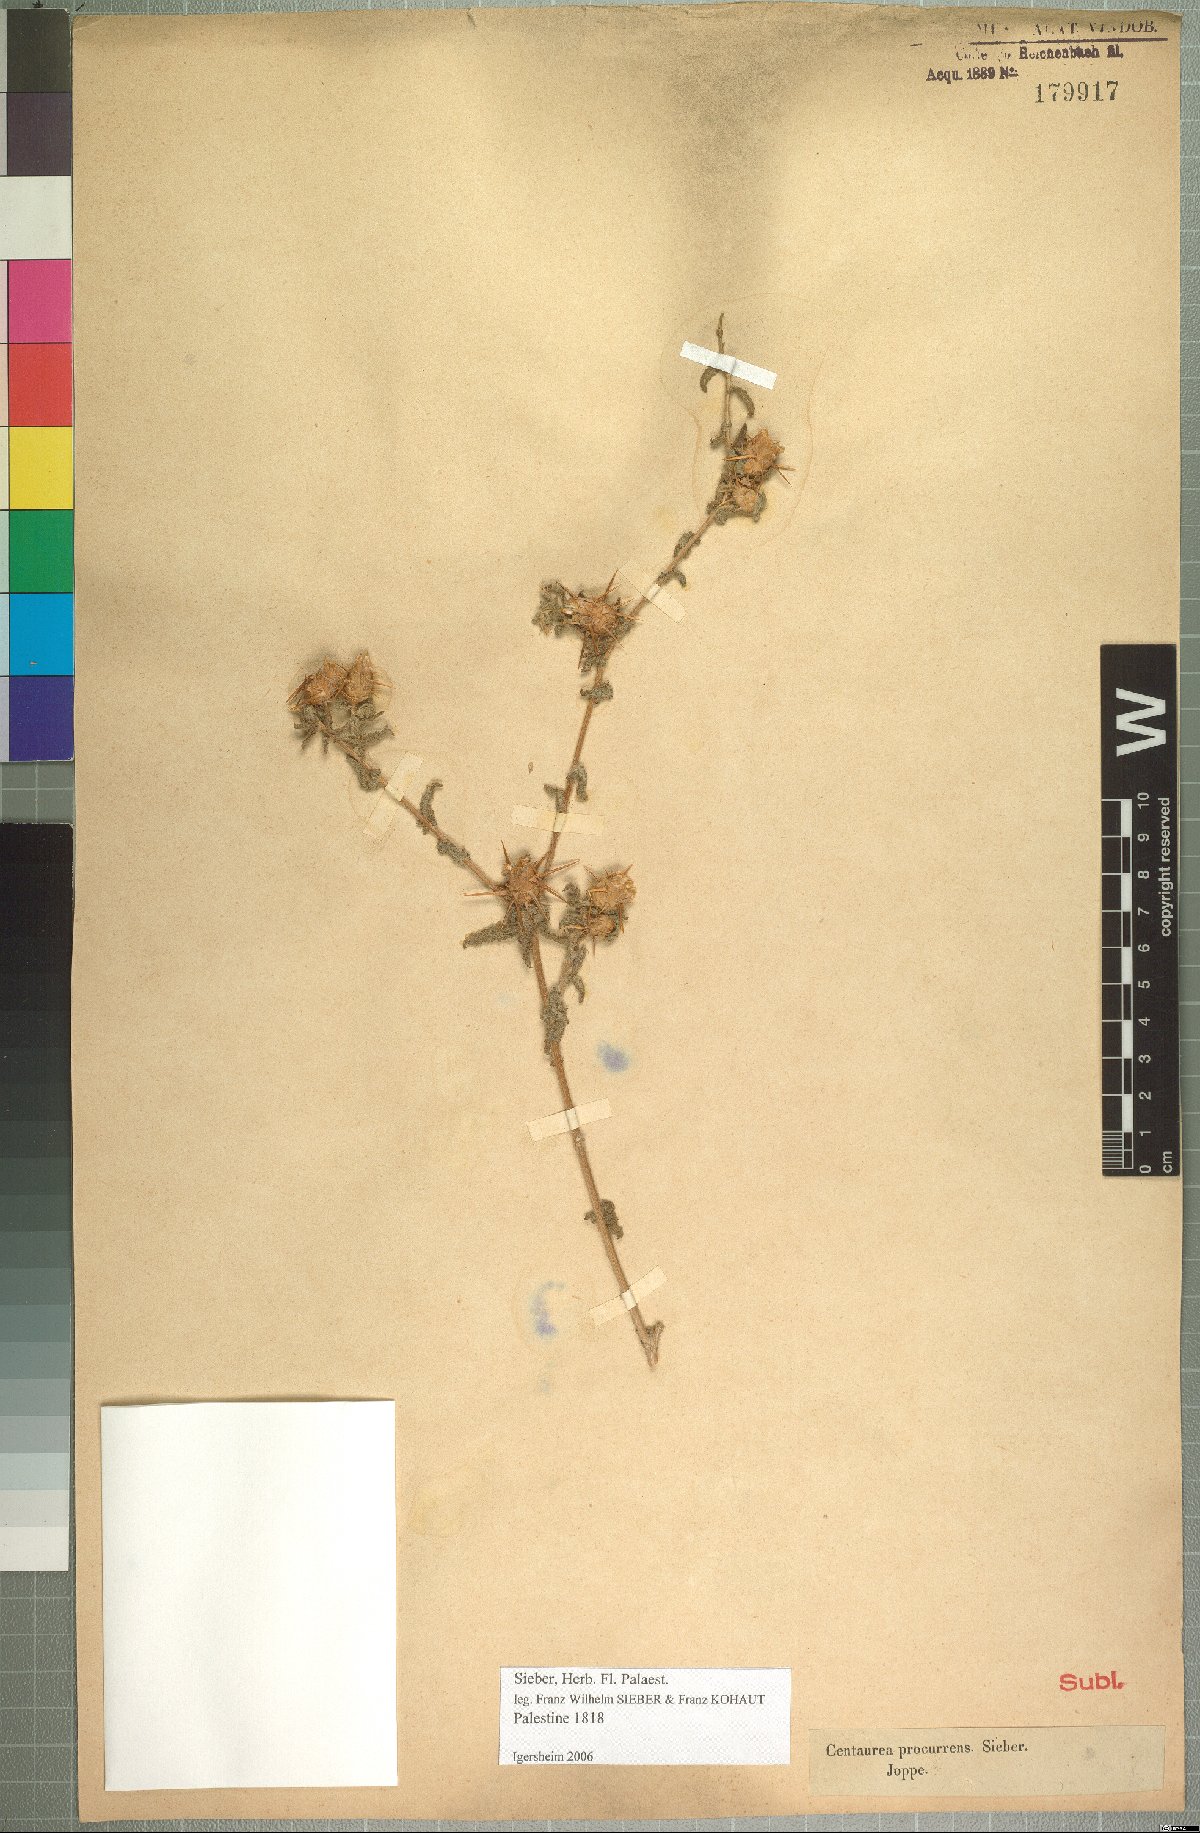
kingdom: Plantae
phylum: Tracheophyta
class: Magnoliopsida
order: Asterales
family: Asteraceae
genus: Centaurea
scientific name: Centaurea procurrens
